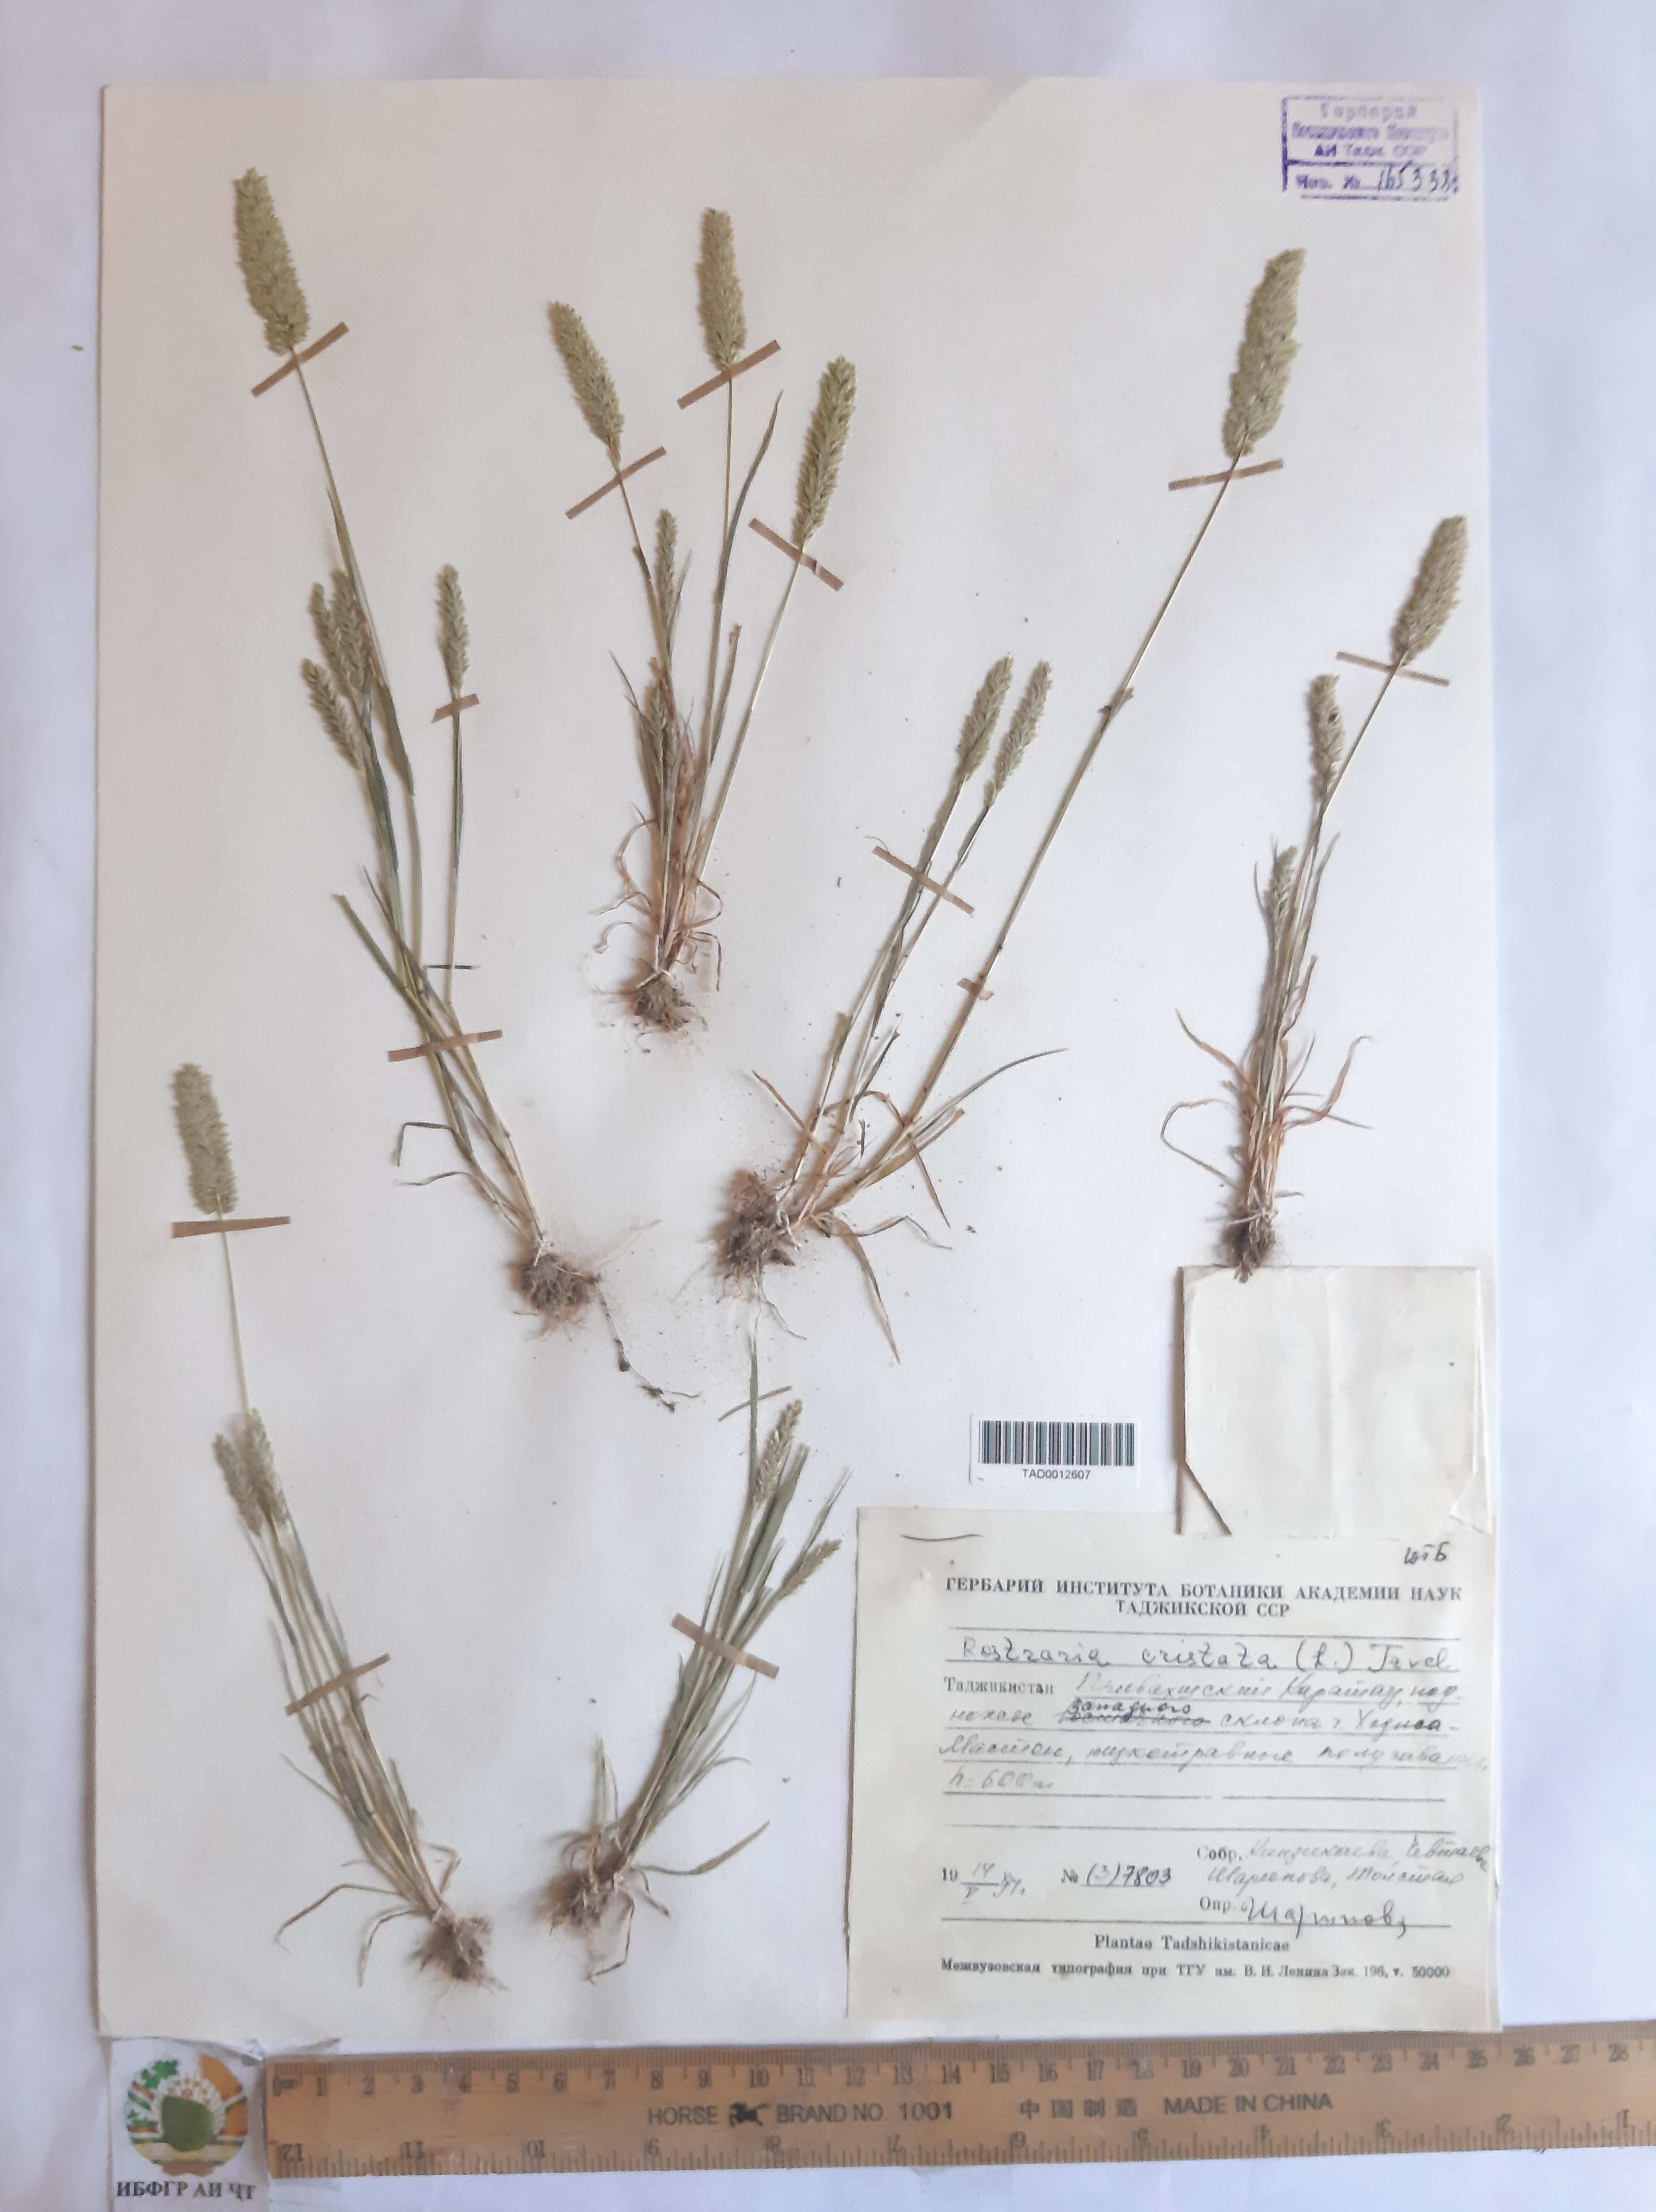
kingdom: Plantae
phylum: Tracheophyta
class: Liliopsida
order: Poales
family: Poaceae
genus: Rostraria
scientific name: Rostraria cristata
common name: Mediterranean hair-grass
